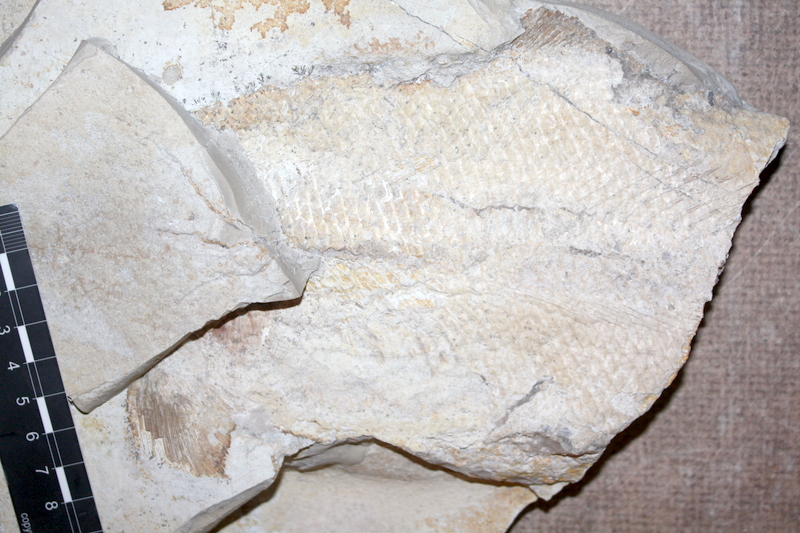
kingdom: Animalia
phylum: Chordata
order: Amiiformes
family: Caturidae
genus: Caturus
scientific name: Caturus
